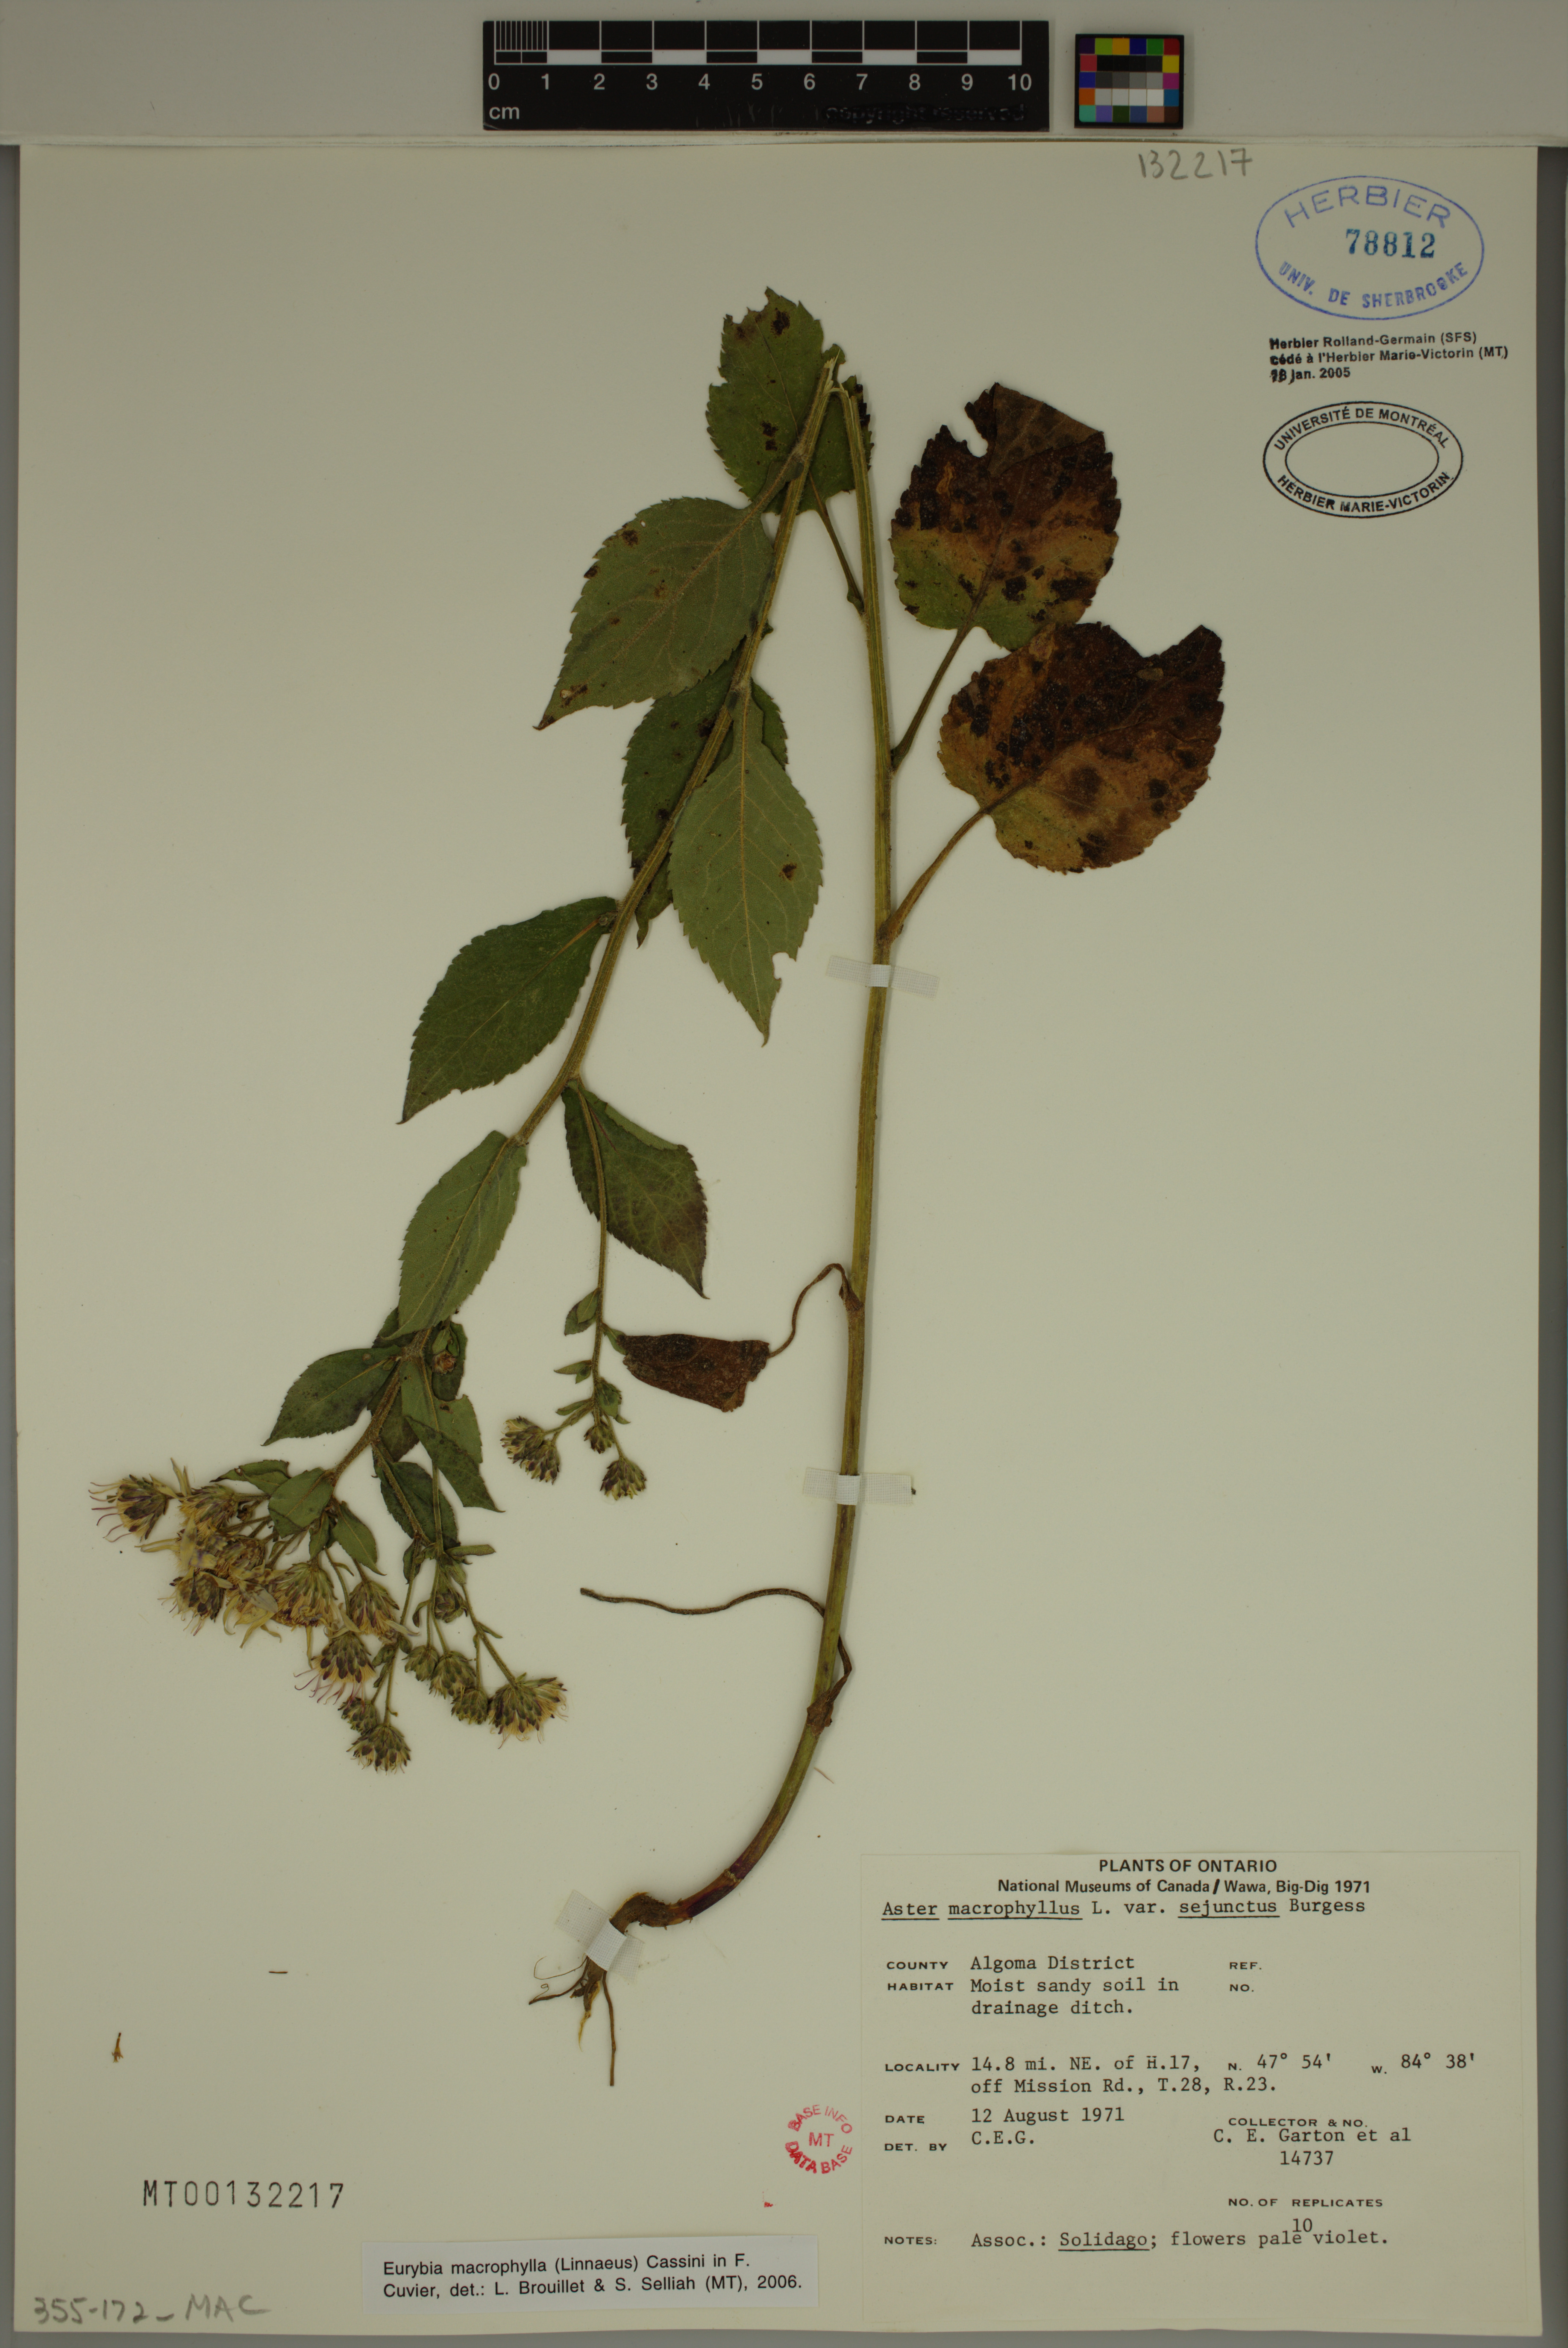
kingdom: Plantae
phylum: Tracheophyta
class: Magnoliopsida
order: Asterales
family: Asteraceae
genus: Eurybia
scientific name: Eurybia macrophylla
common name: Big-leaved aster
